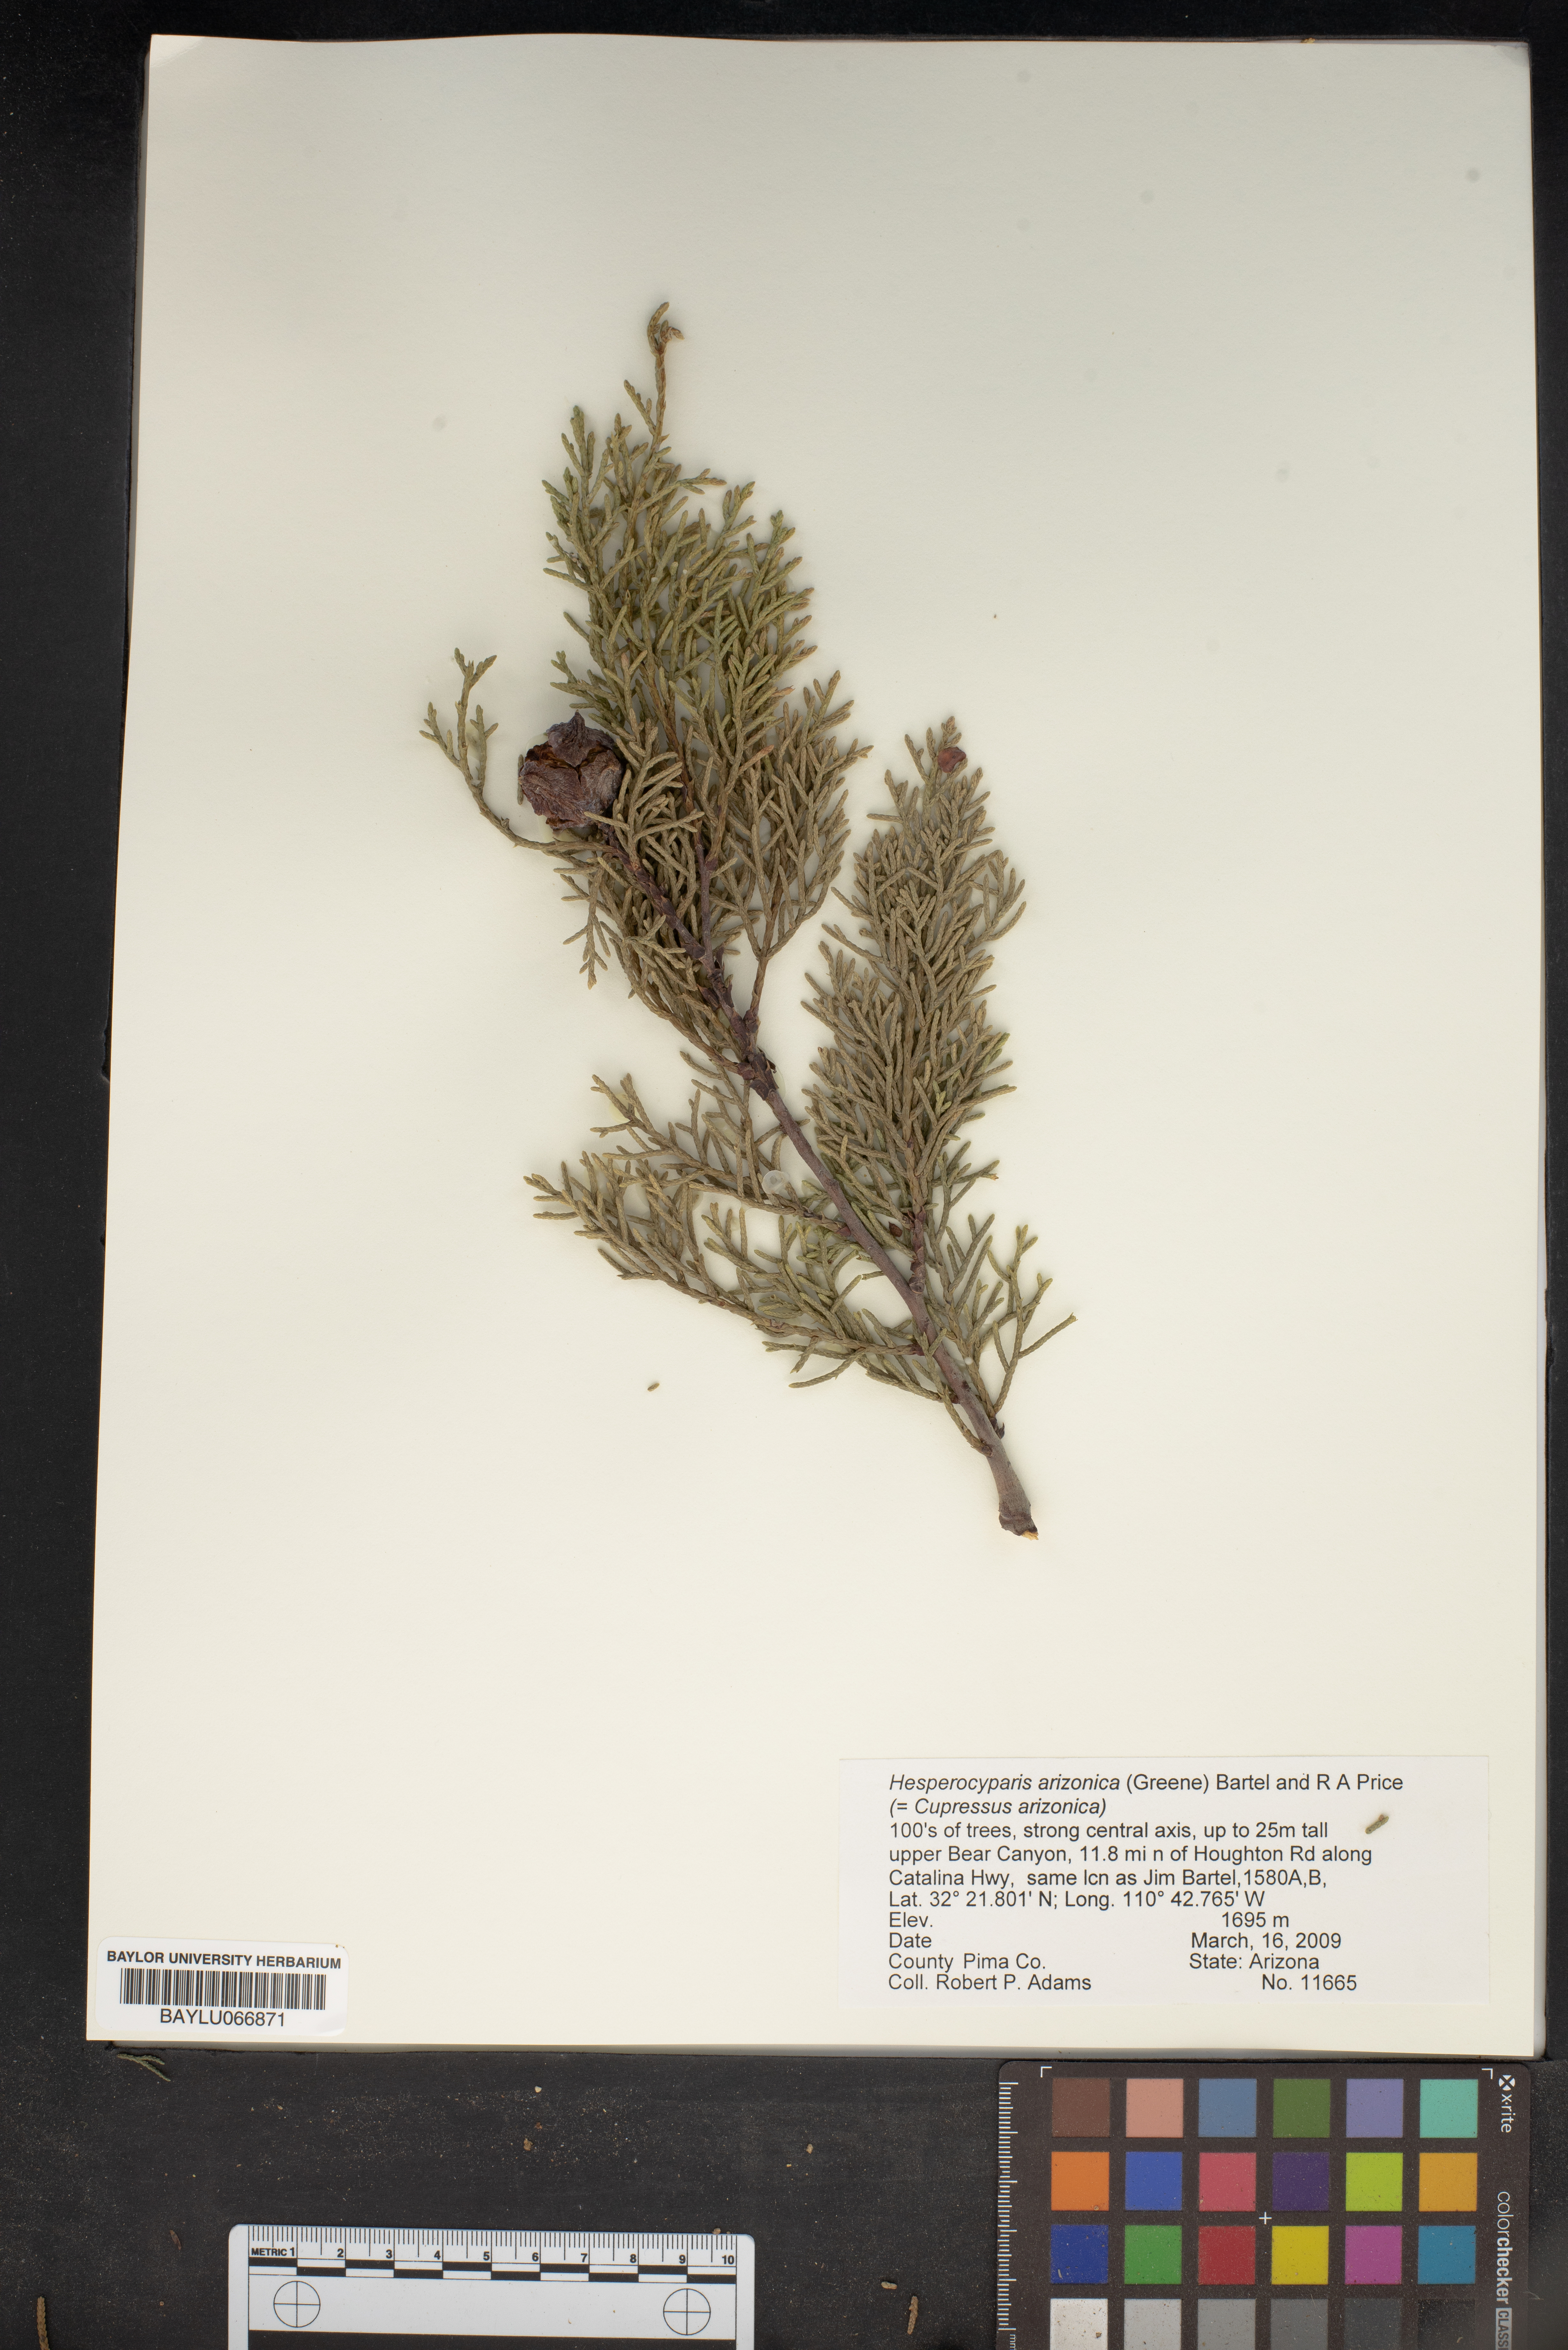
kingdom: Plantae
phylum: Tracheophyta
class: Pinopsida
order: Pinales
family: Cupressaceae
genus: Cupressus
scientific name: Cupressus arizonica
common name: Arizona cypress
